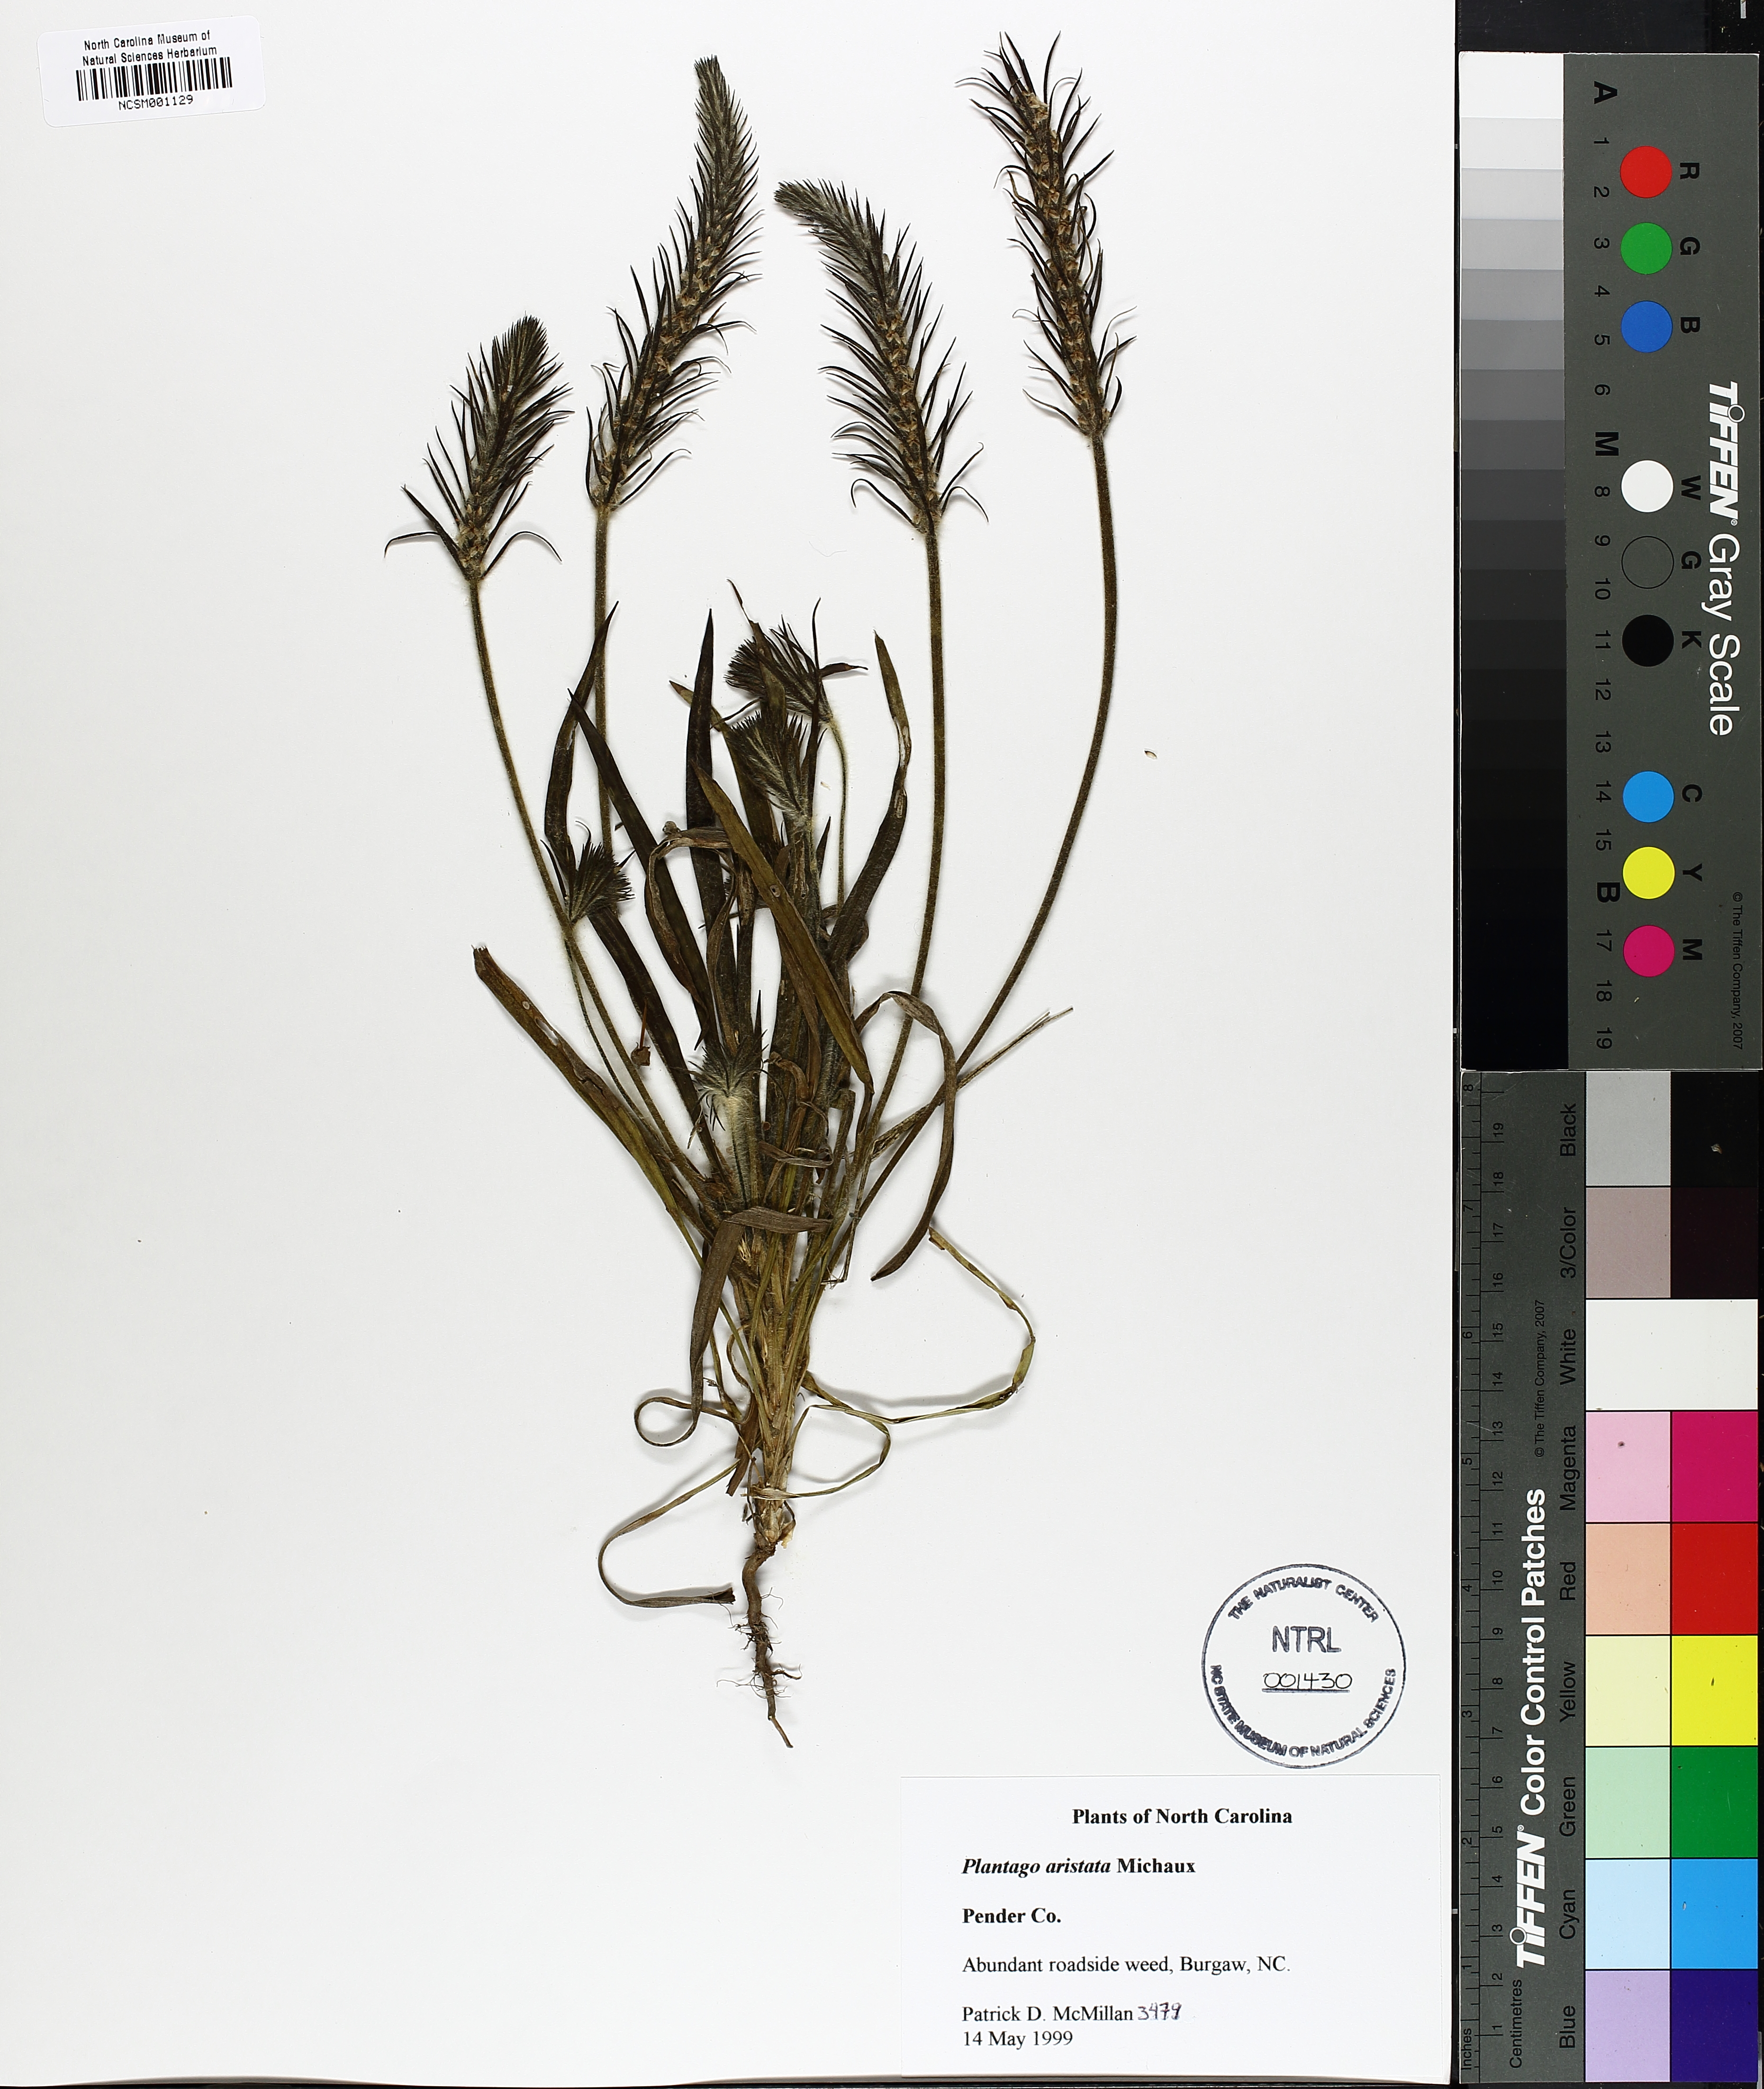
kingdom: Plantae
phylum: Tracheophyta
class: Magnoliopsida
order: Lamiales
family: Plantaginaceae
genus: Plantago
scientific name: Plantago aristata
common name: Bracted plantain
